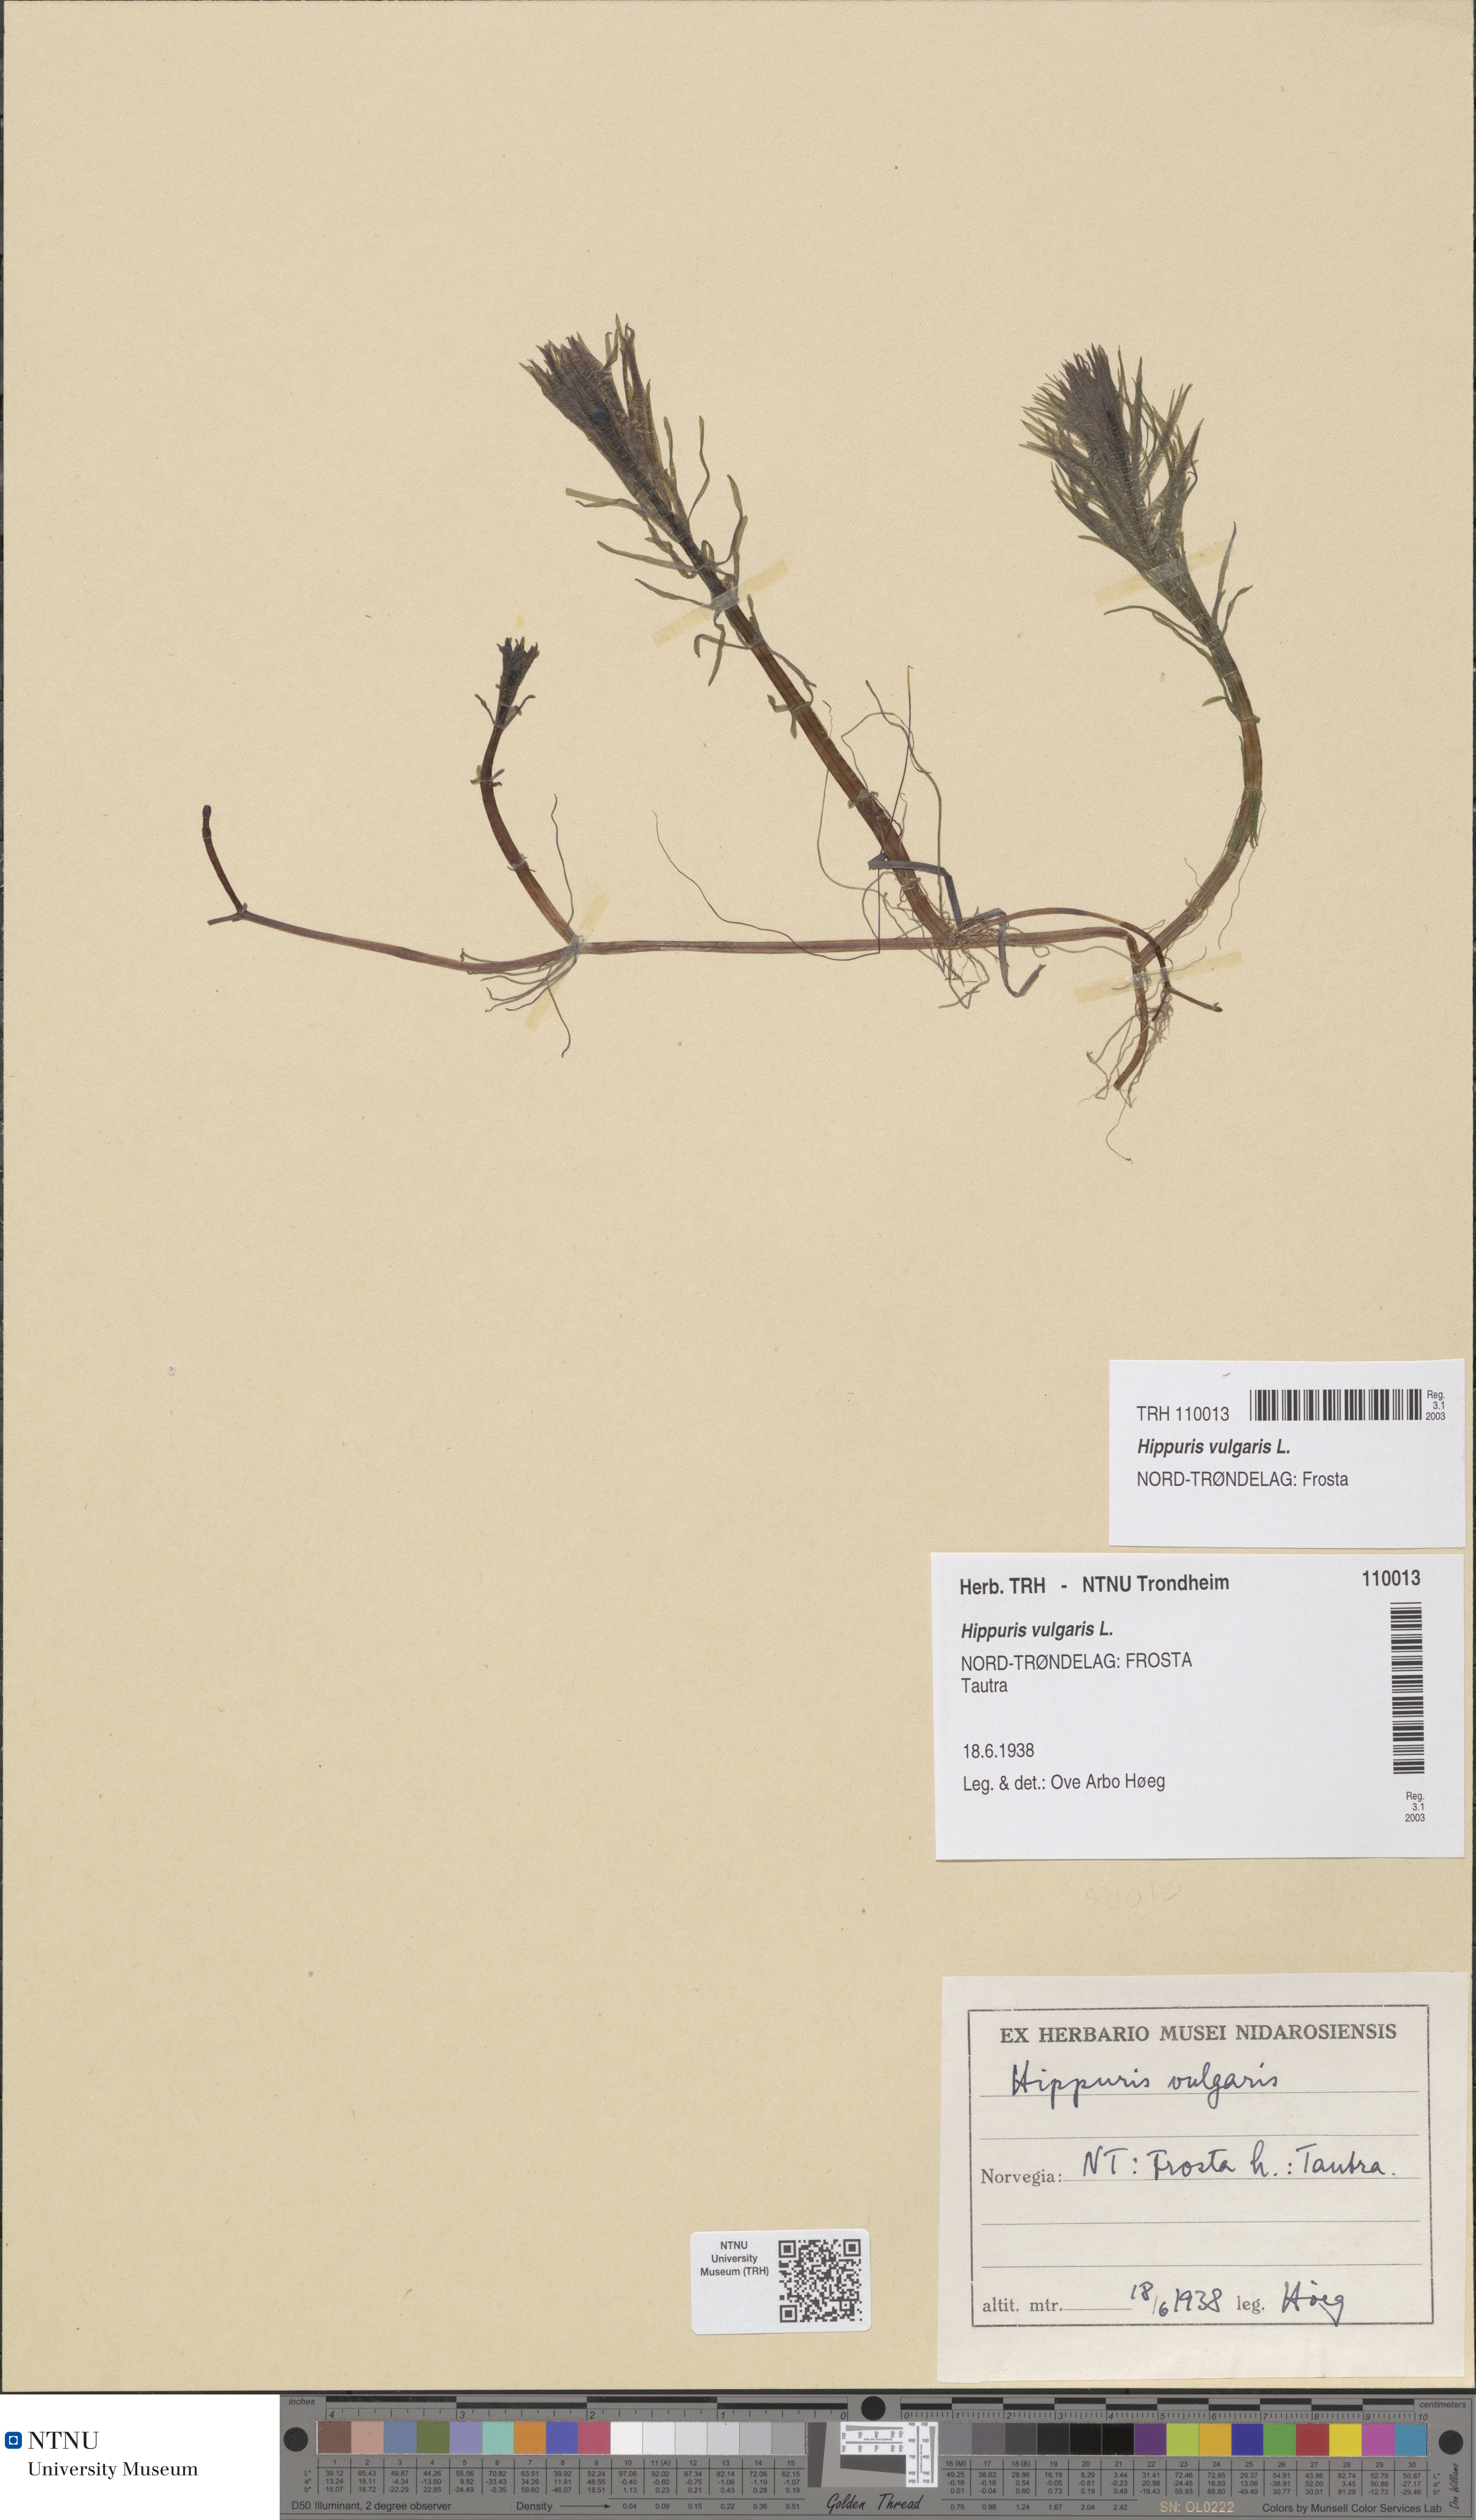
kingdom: Plantae
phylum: Tracheophyta
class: Magnoliopsida
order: Lamiales
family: Plantaginaceae
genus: Hippuris
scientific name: Hippuris vulgaris
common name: Mare's-tail
